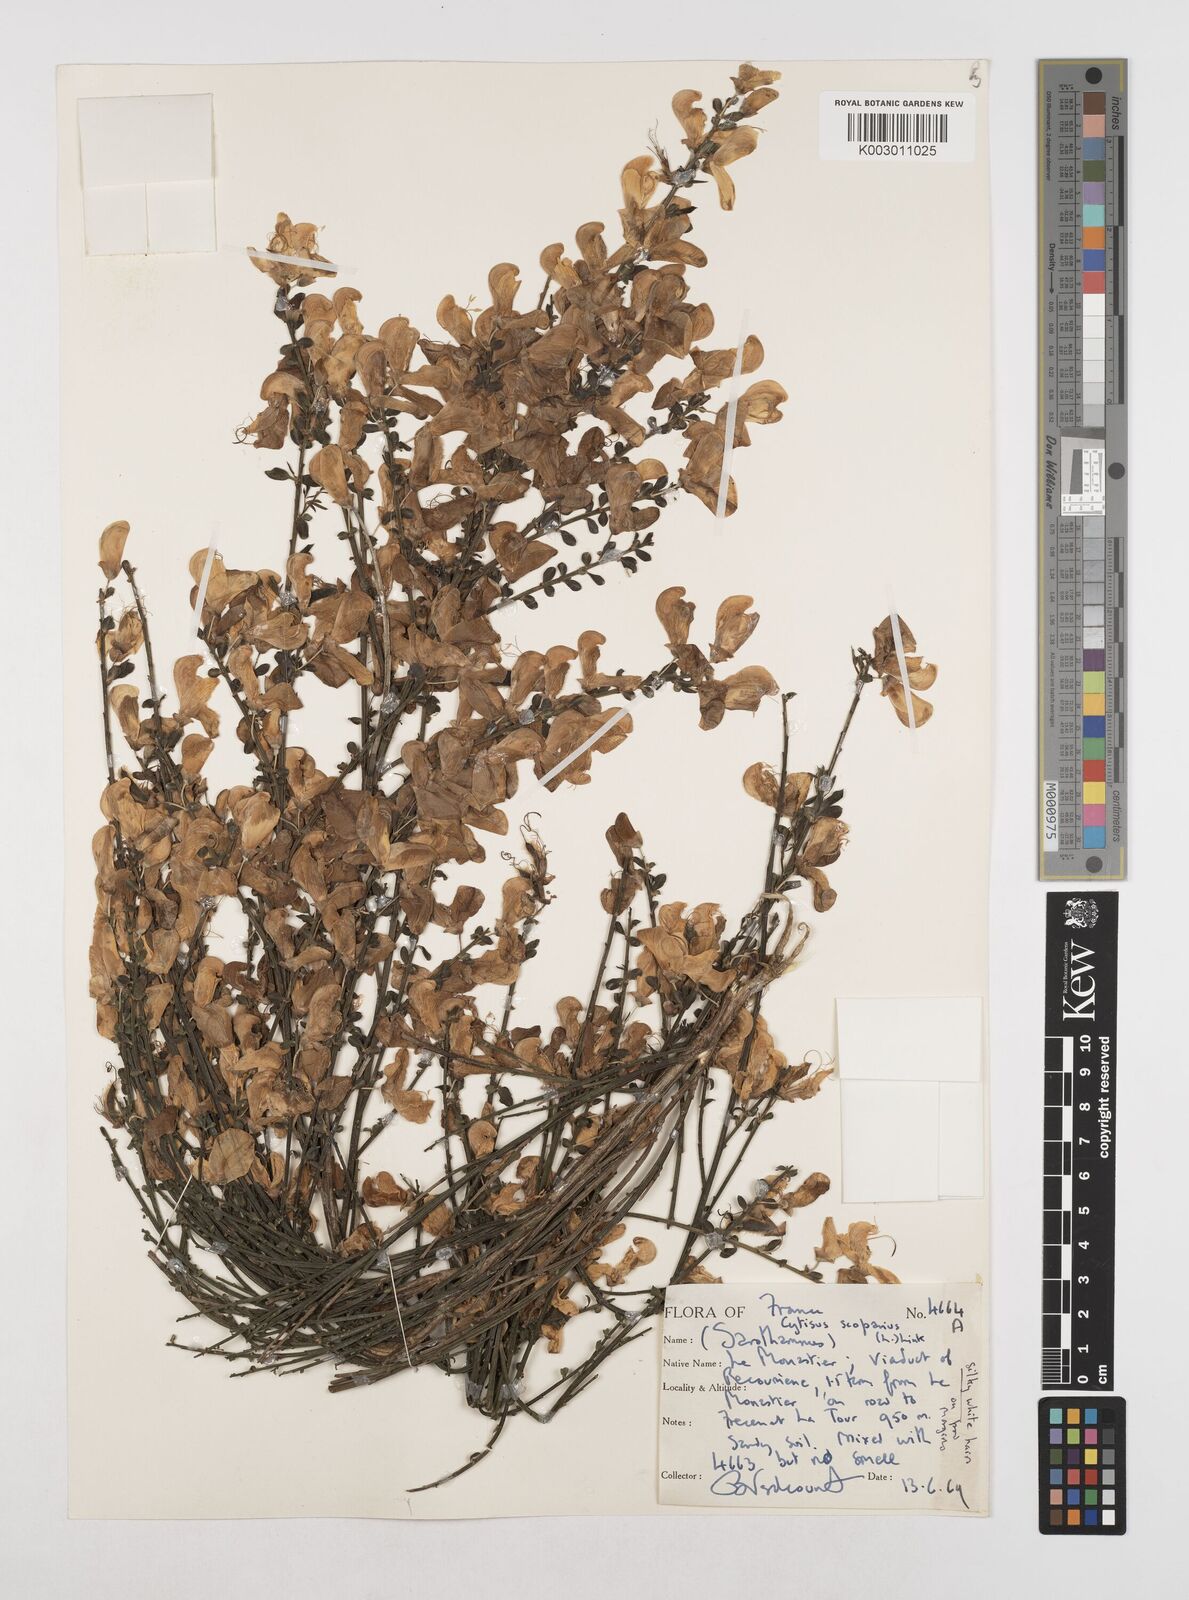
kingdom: Plantae
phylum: Tracheophyta
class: Magnoliopsida
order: Fabales
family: Fabaceae
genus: Cytisus
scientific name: Cytisus scoparius
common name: Scotch broom
